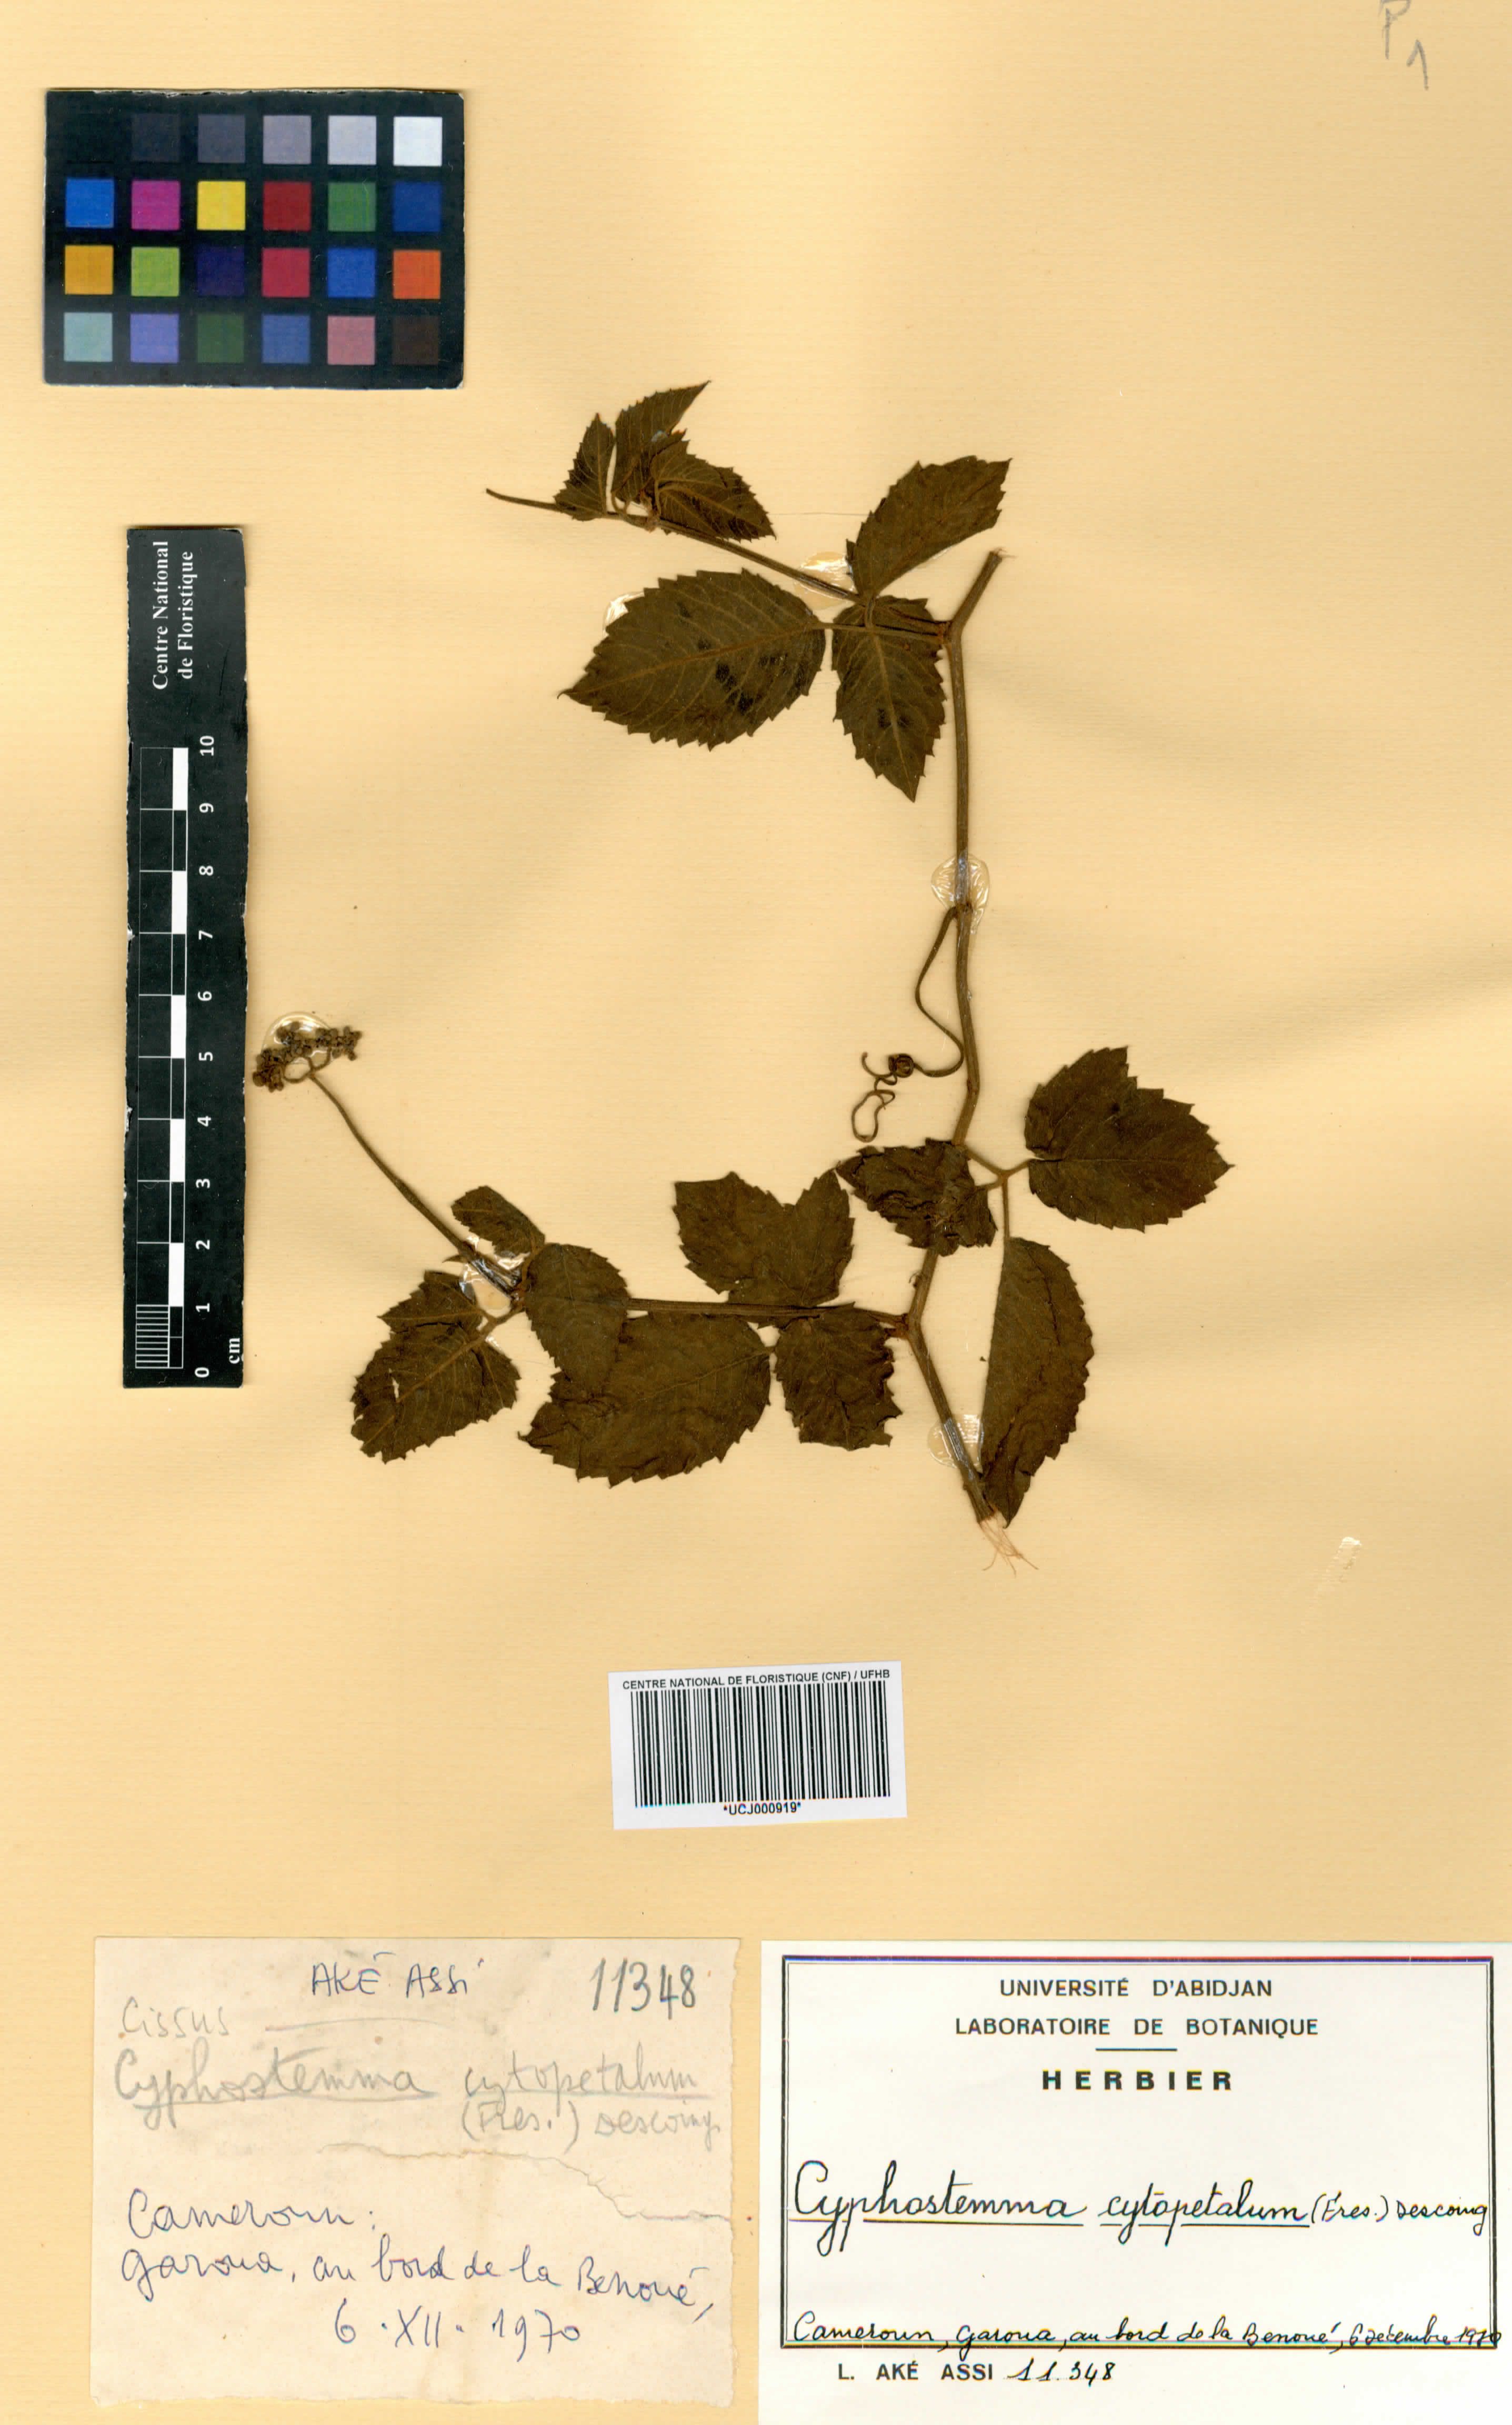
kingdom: Plantae
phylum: Tracheophyta
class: Magnoliopsida
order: Vitales
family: Vitaceae
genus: Cyphostemma
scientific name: Cyphostemma
